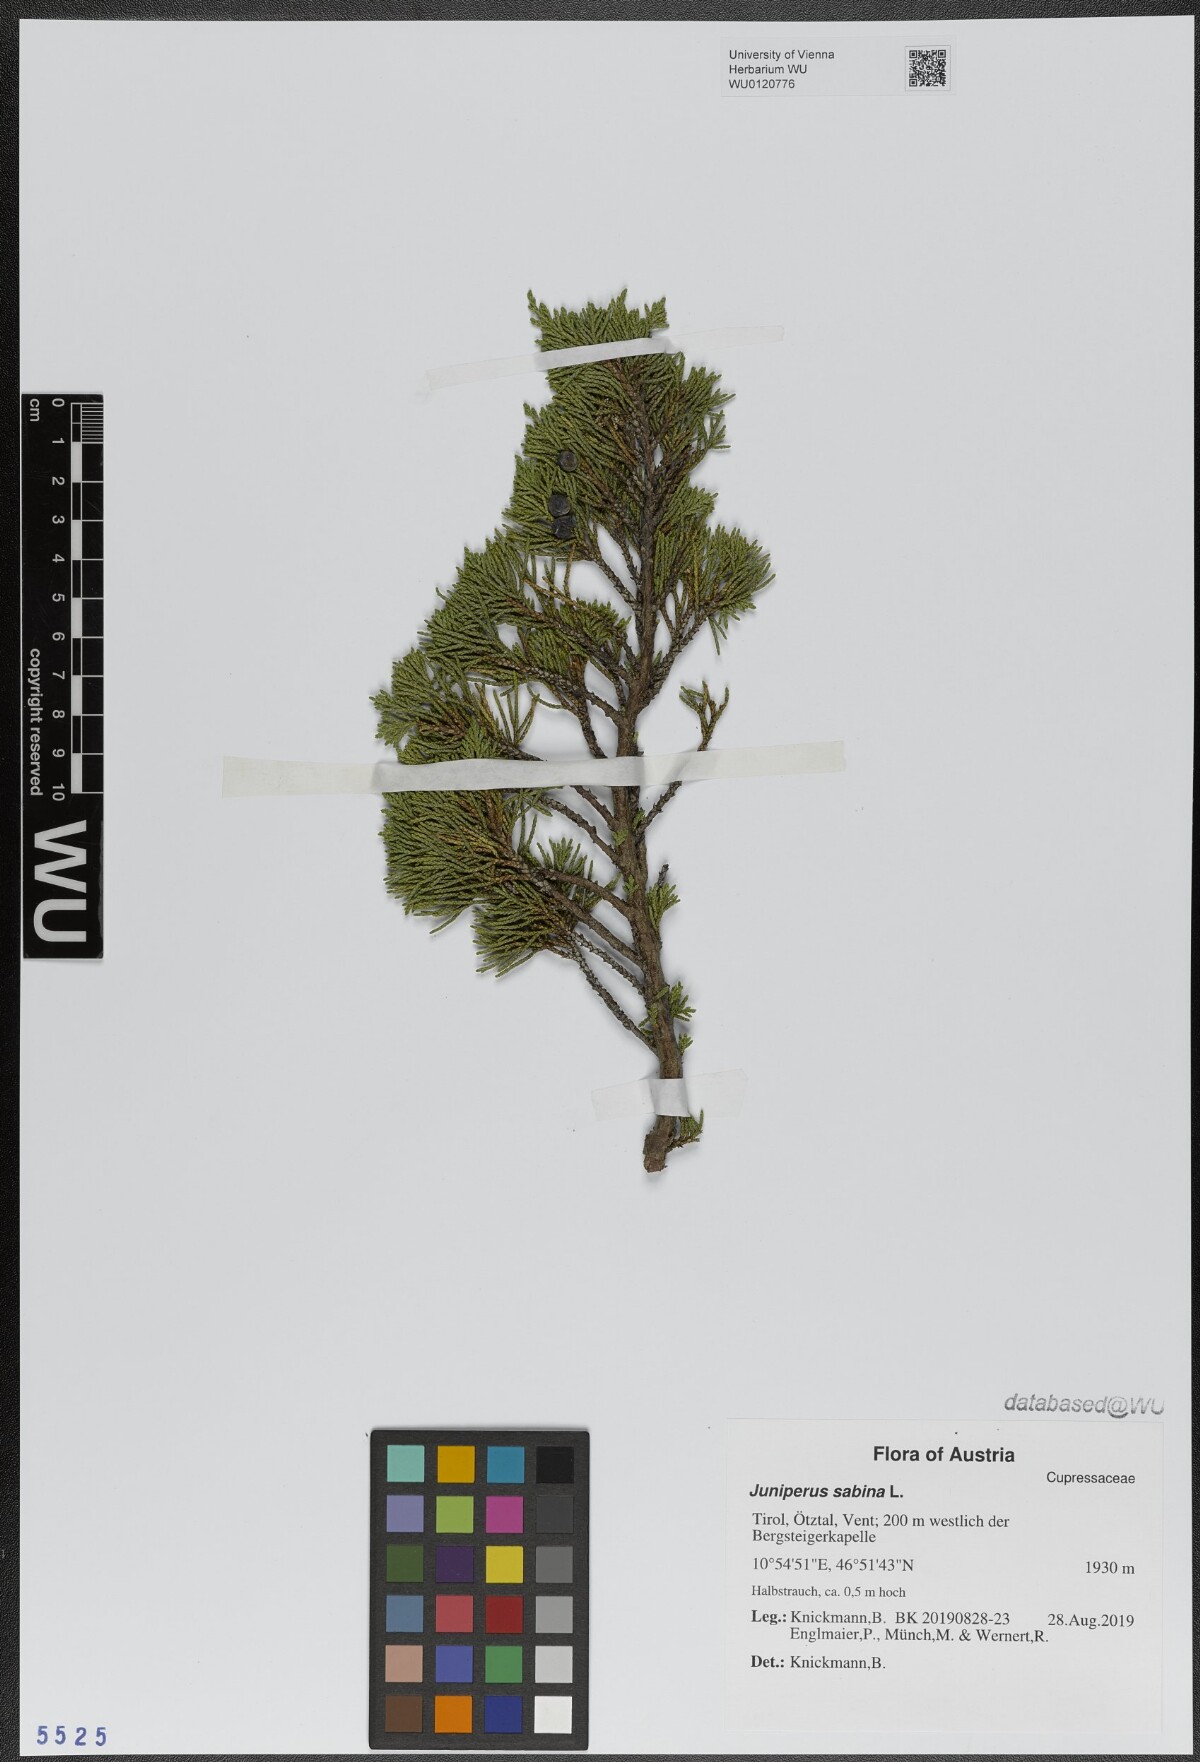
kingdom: Plantae
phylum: Tracheophyta
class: Pinopsida
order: Pinales
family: Cupressaceae
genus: Juniperus
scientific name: Juniperus sabina
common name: Savin
